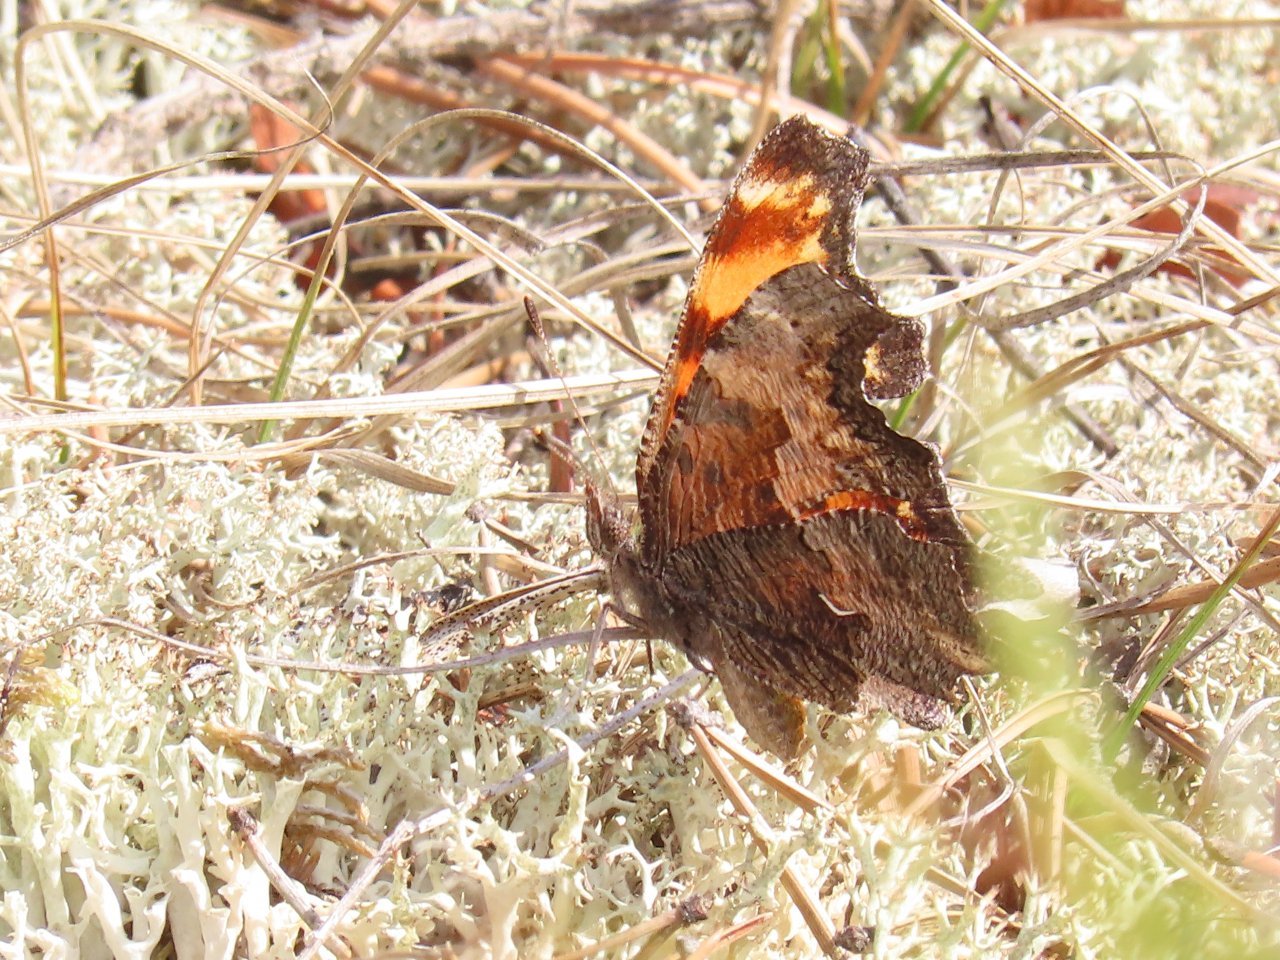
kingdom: Animalia
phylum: Arthropoda
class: Insecta
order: Lepidoptera
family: Nymphalidae
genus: Polygonia
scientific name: Polygonia progne
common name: Gray Comma
